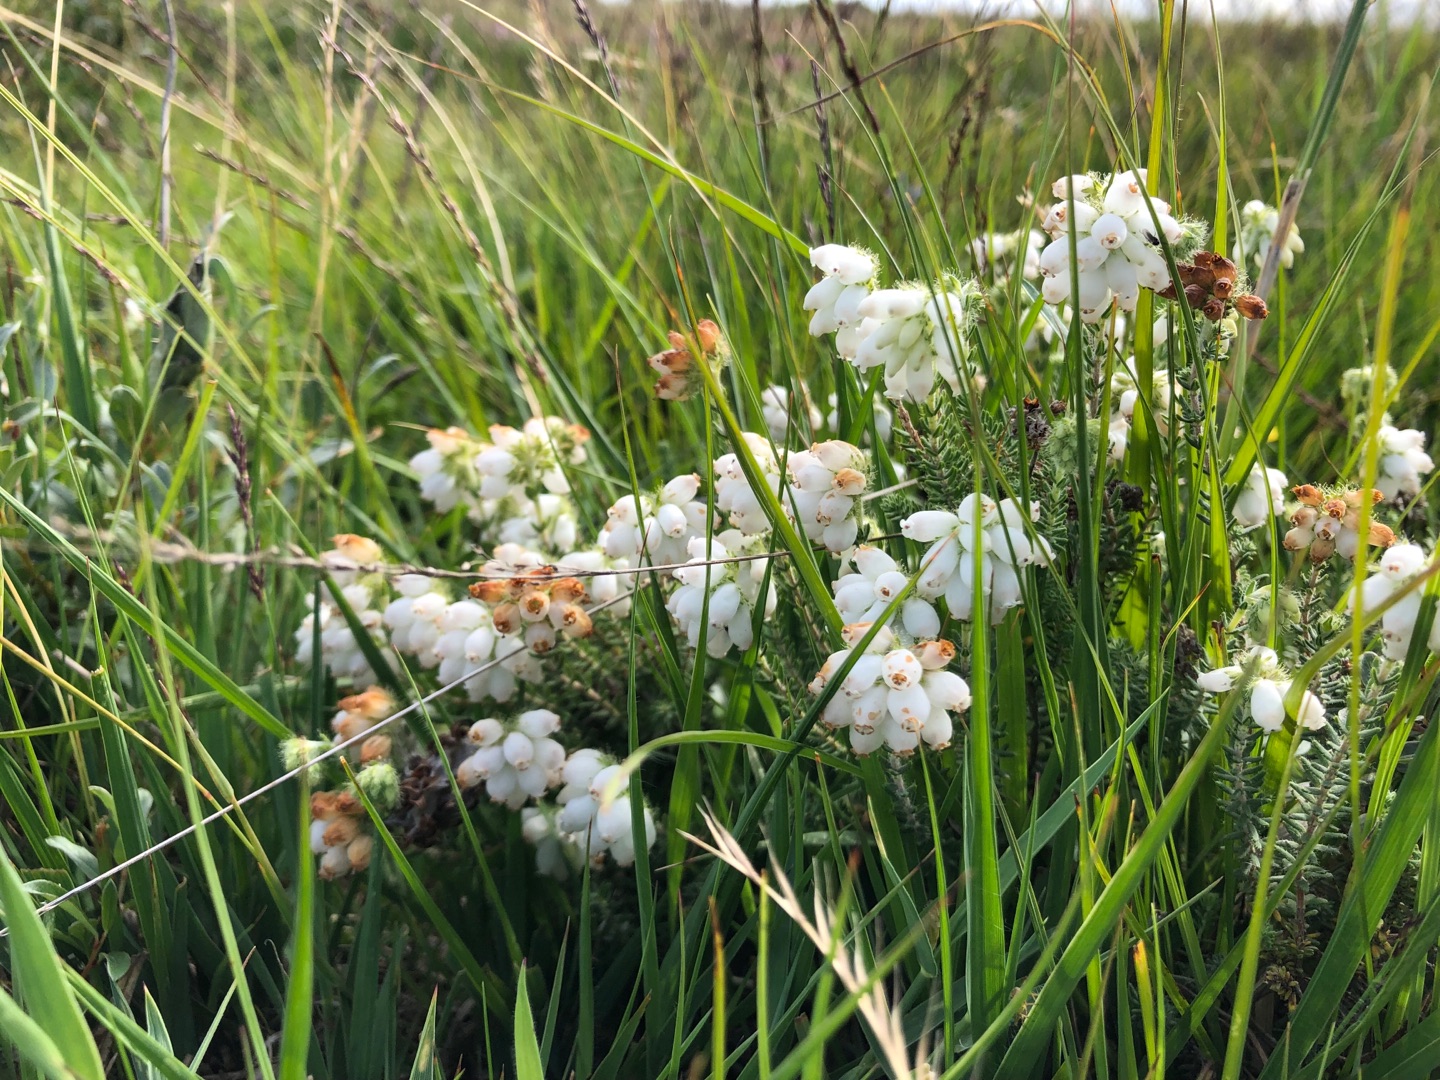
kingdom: Plantae
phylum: Tracheophyta
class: Magnoliopsida
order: Ericales
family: Ericaceae
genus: Erica
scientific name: Erica tetralix
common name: Klokkelyng
